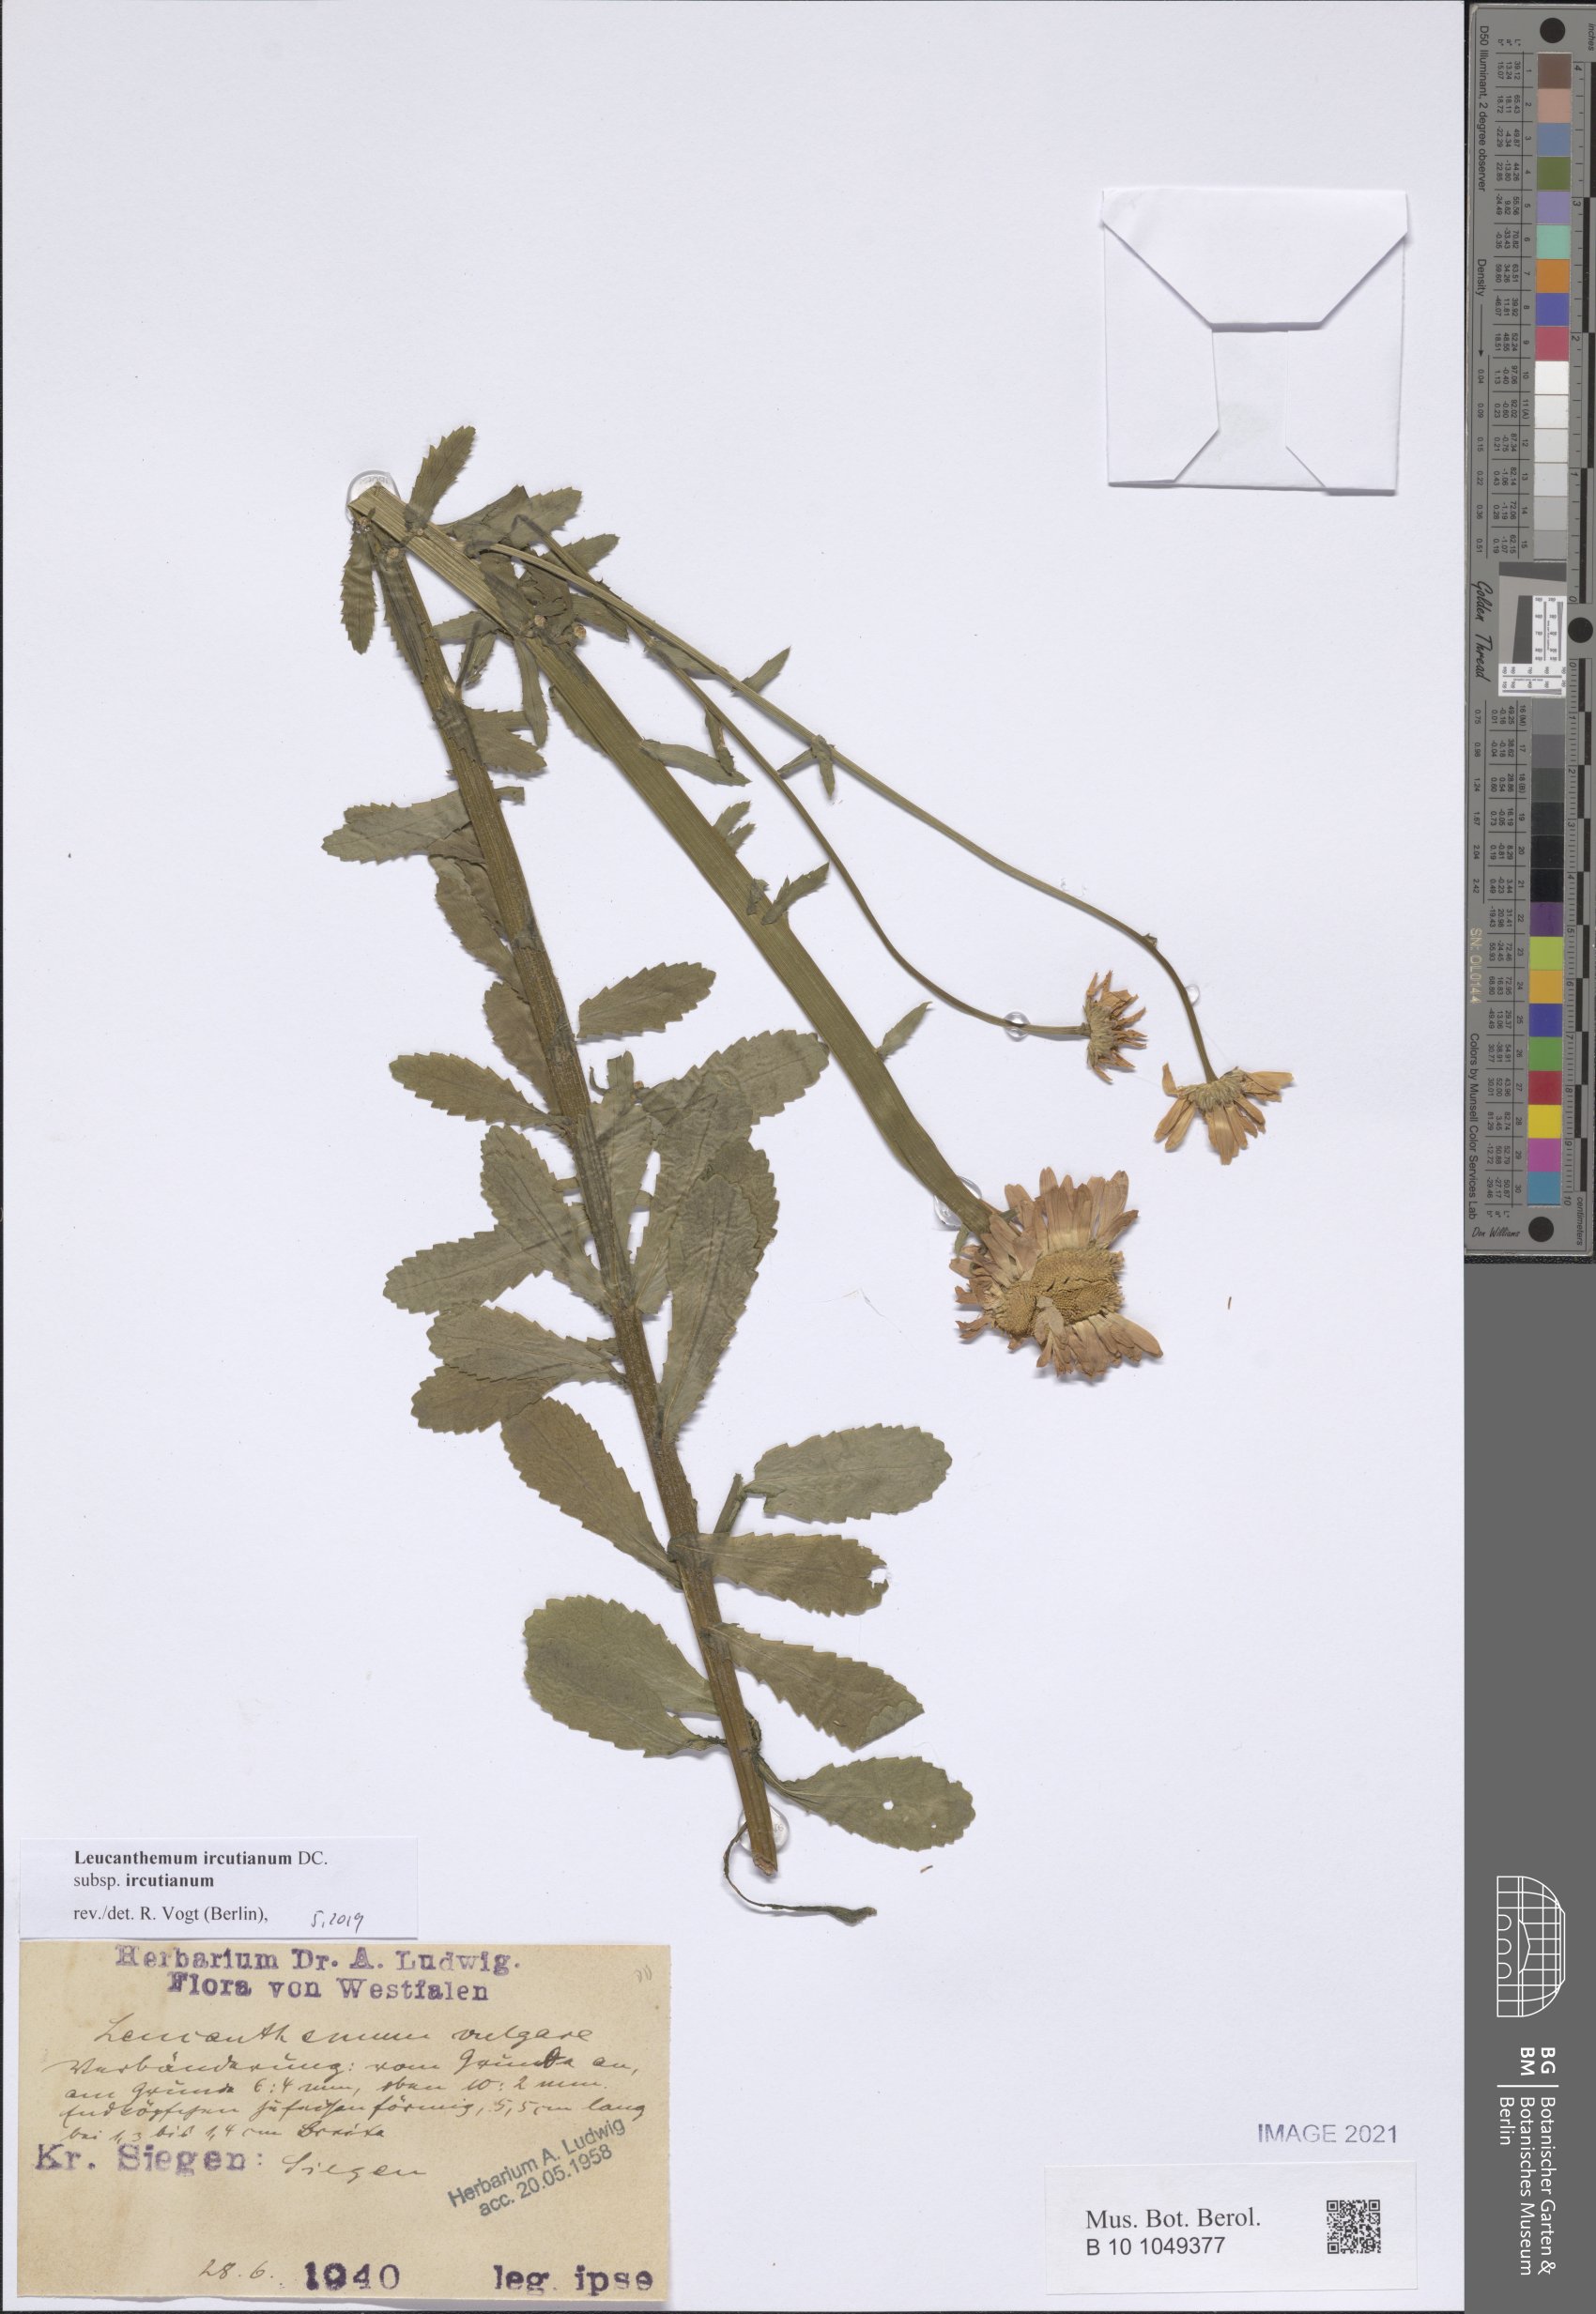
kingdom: Plantae
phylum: Tracheophyta
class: Magnoliopsida
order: Asterales
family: Asteraceae
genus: Leucanthemum
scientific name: Leucanthemum ircutianum
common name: Daisy
